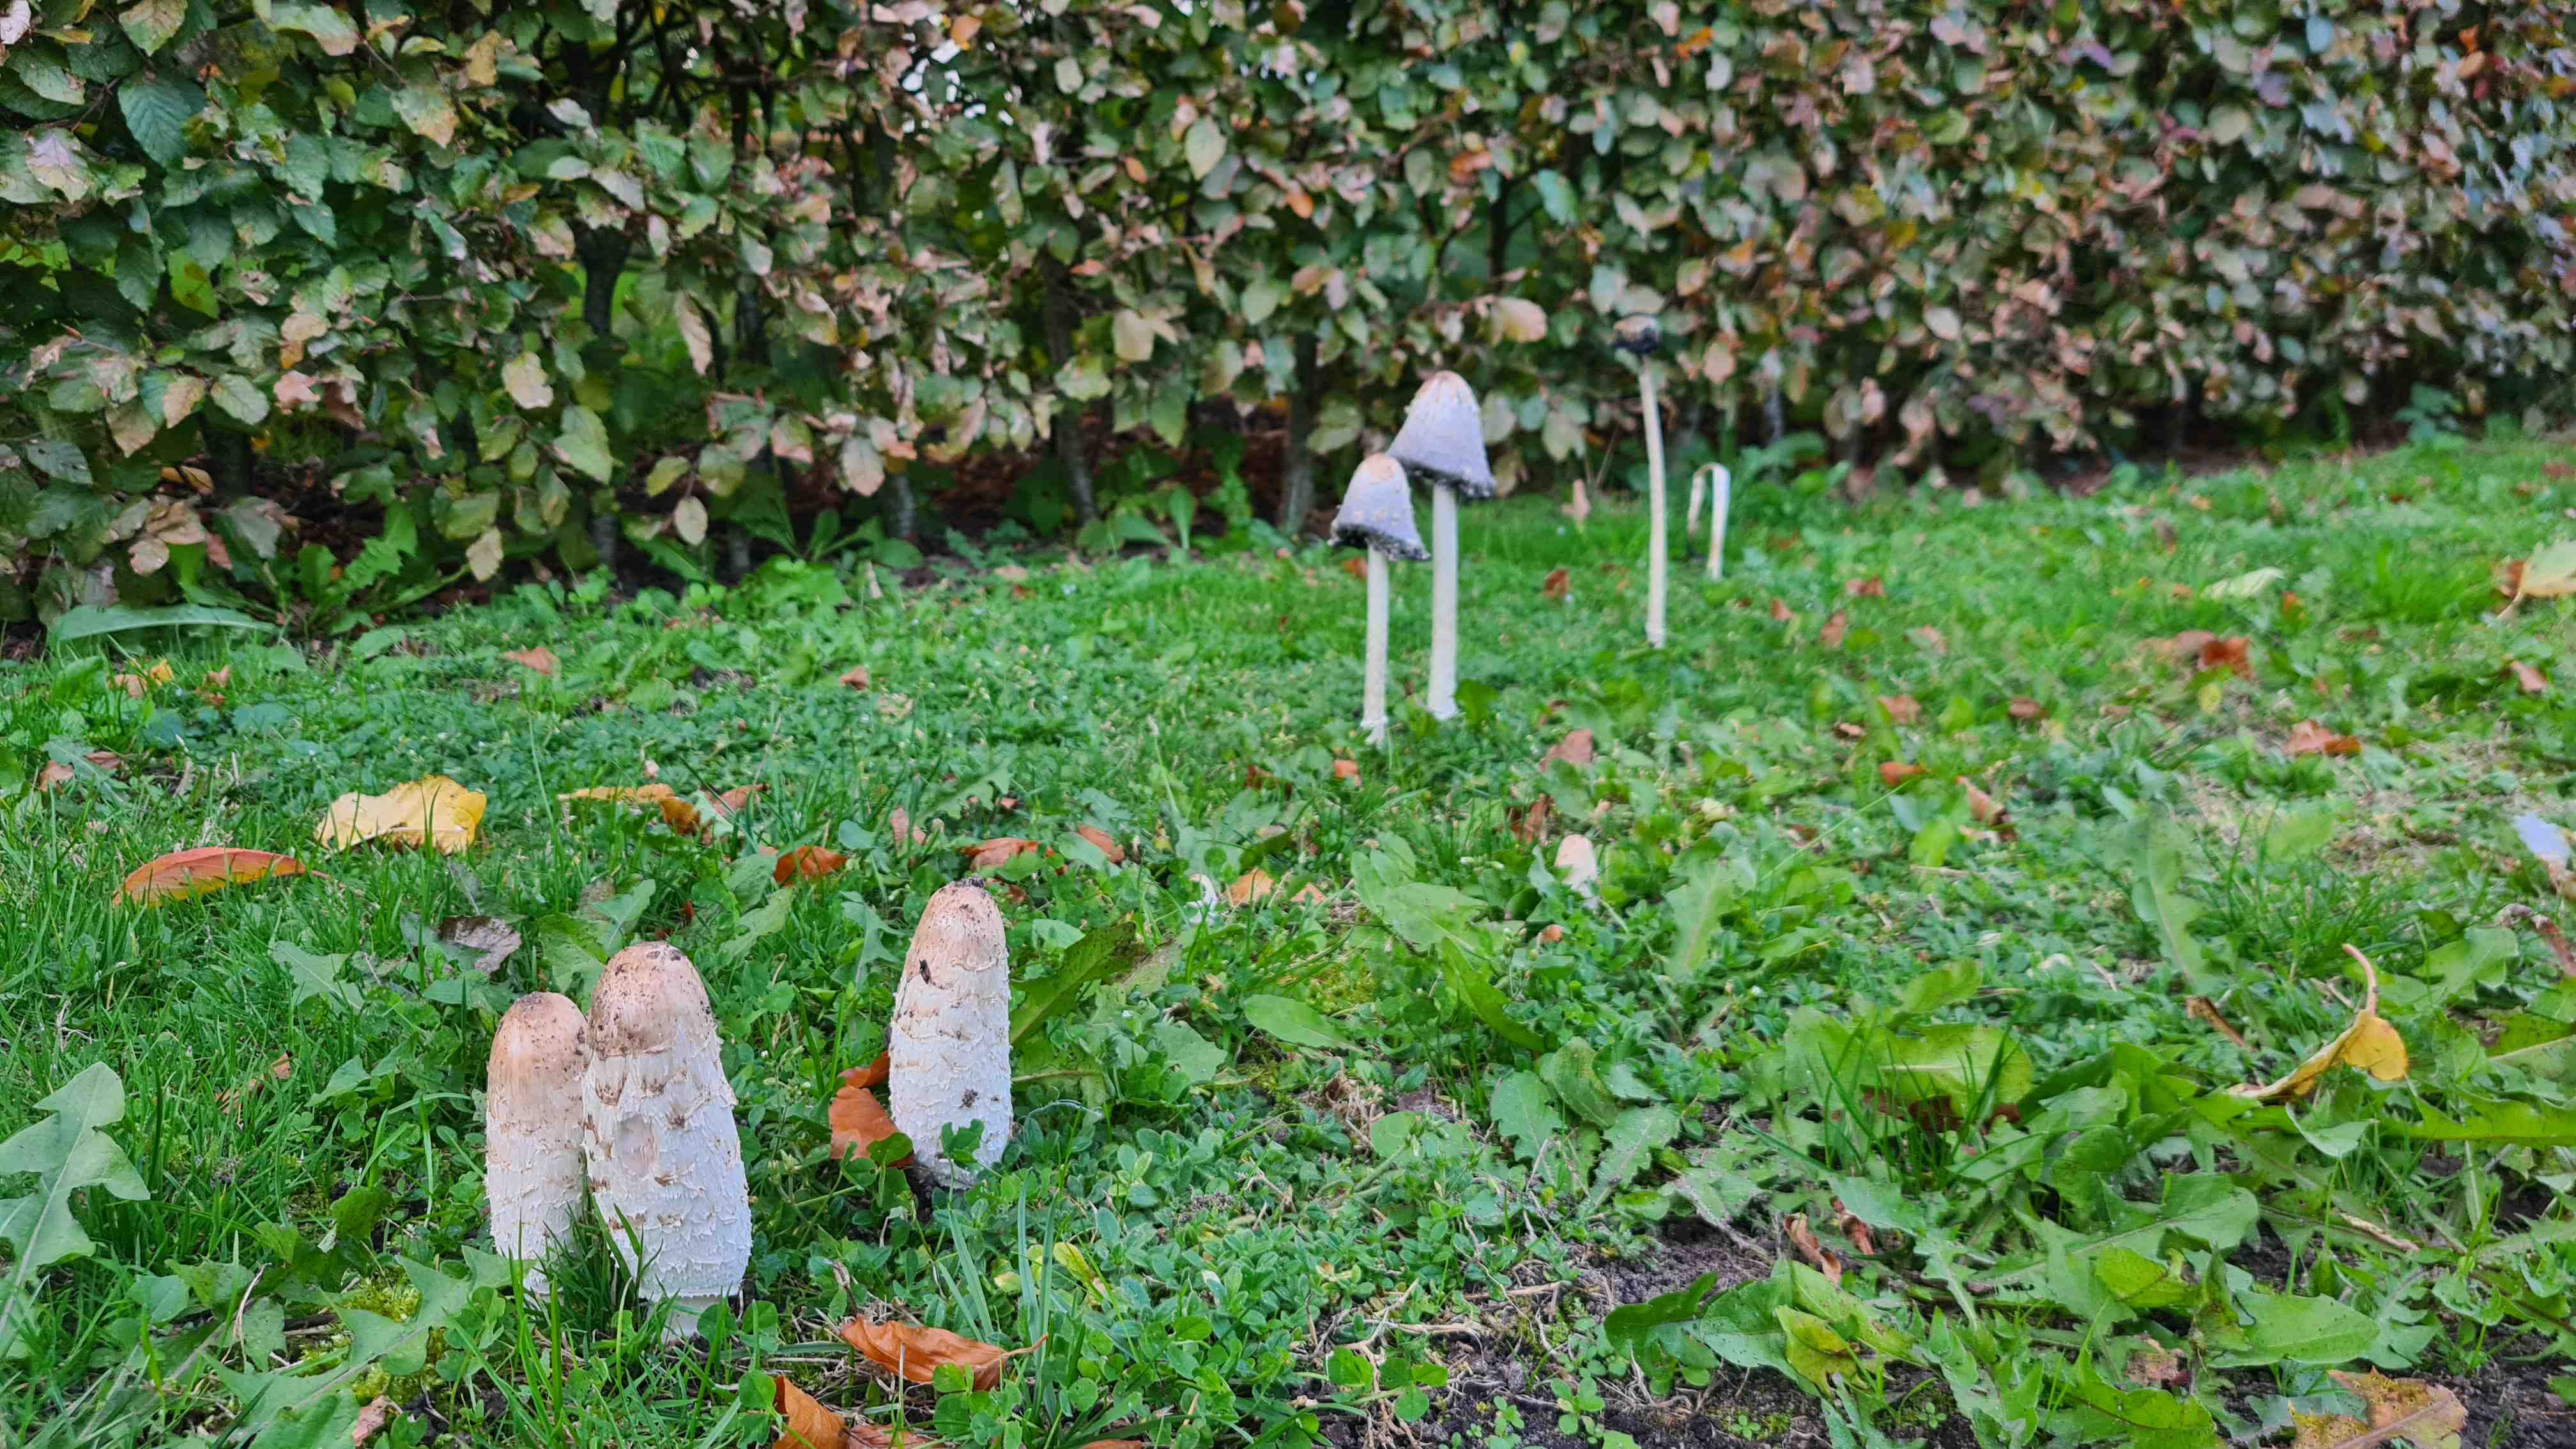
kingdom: Fungi
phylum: Basidiomycota
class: Agaricomycetes
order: Agaricales
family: Agaricaceae
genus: Coprinus
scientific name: Coprinus comatus
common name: stor parykhat
